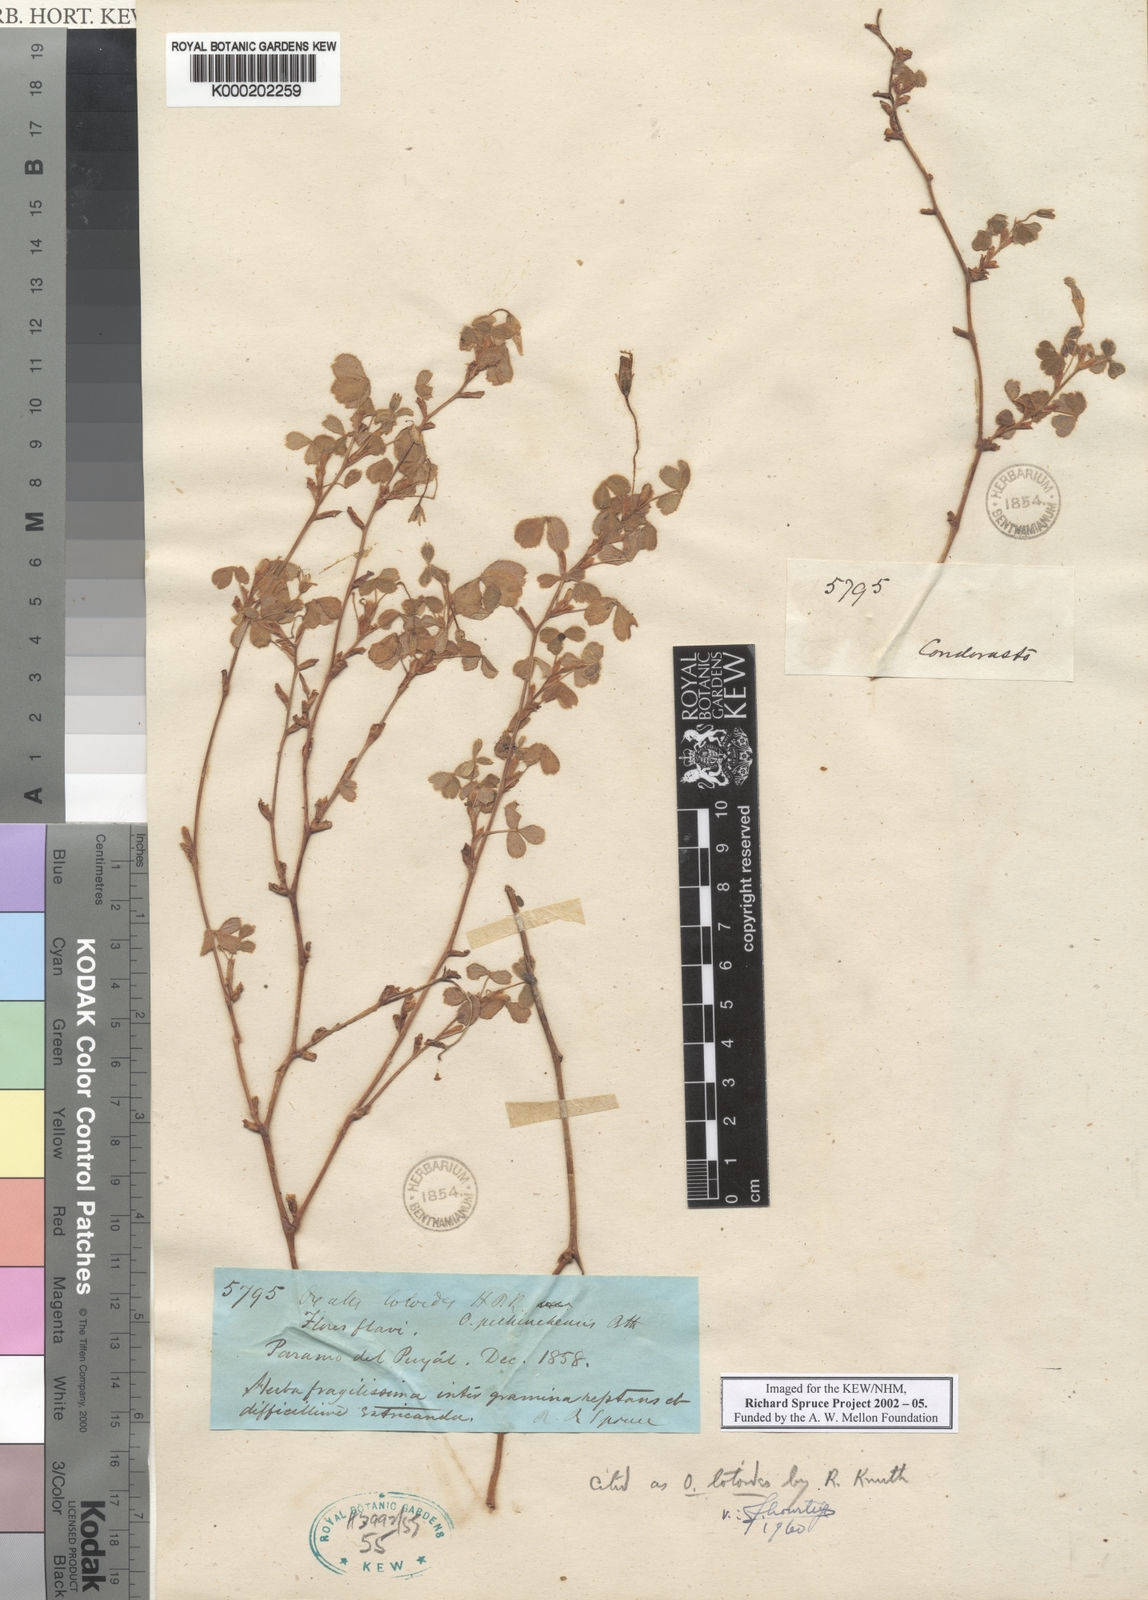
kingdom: Plantae
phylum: Tracheophyta
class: Magnoliopsida
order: Oxalidales
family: Oxalidaceae
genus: Oxalis
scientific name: Oxalis lotoides
